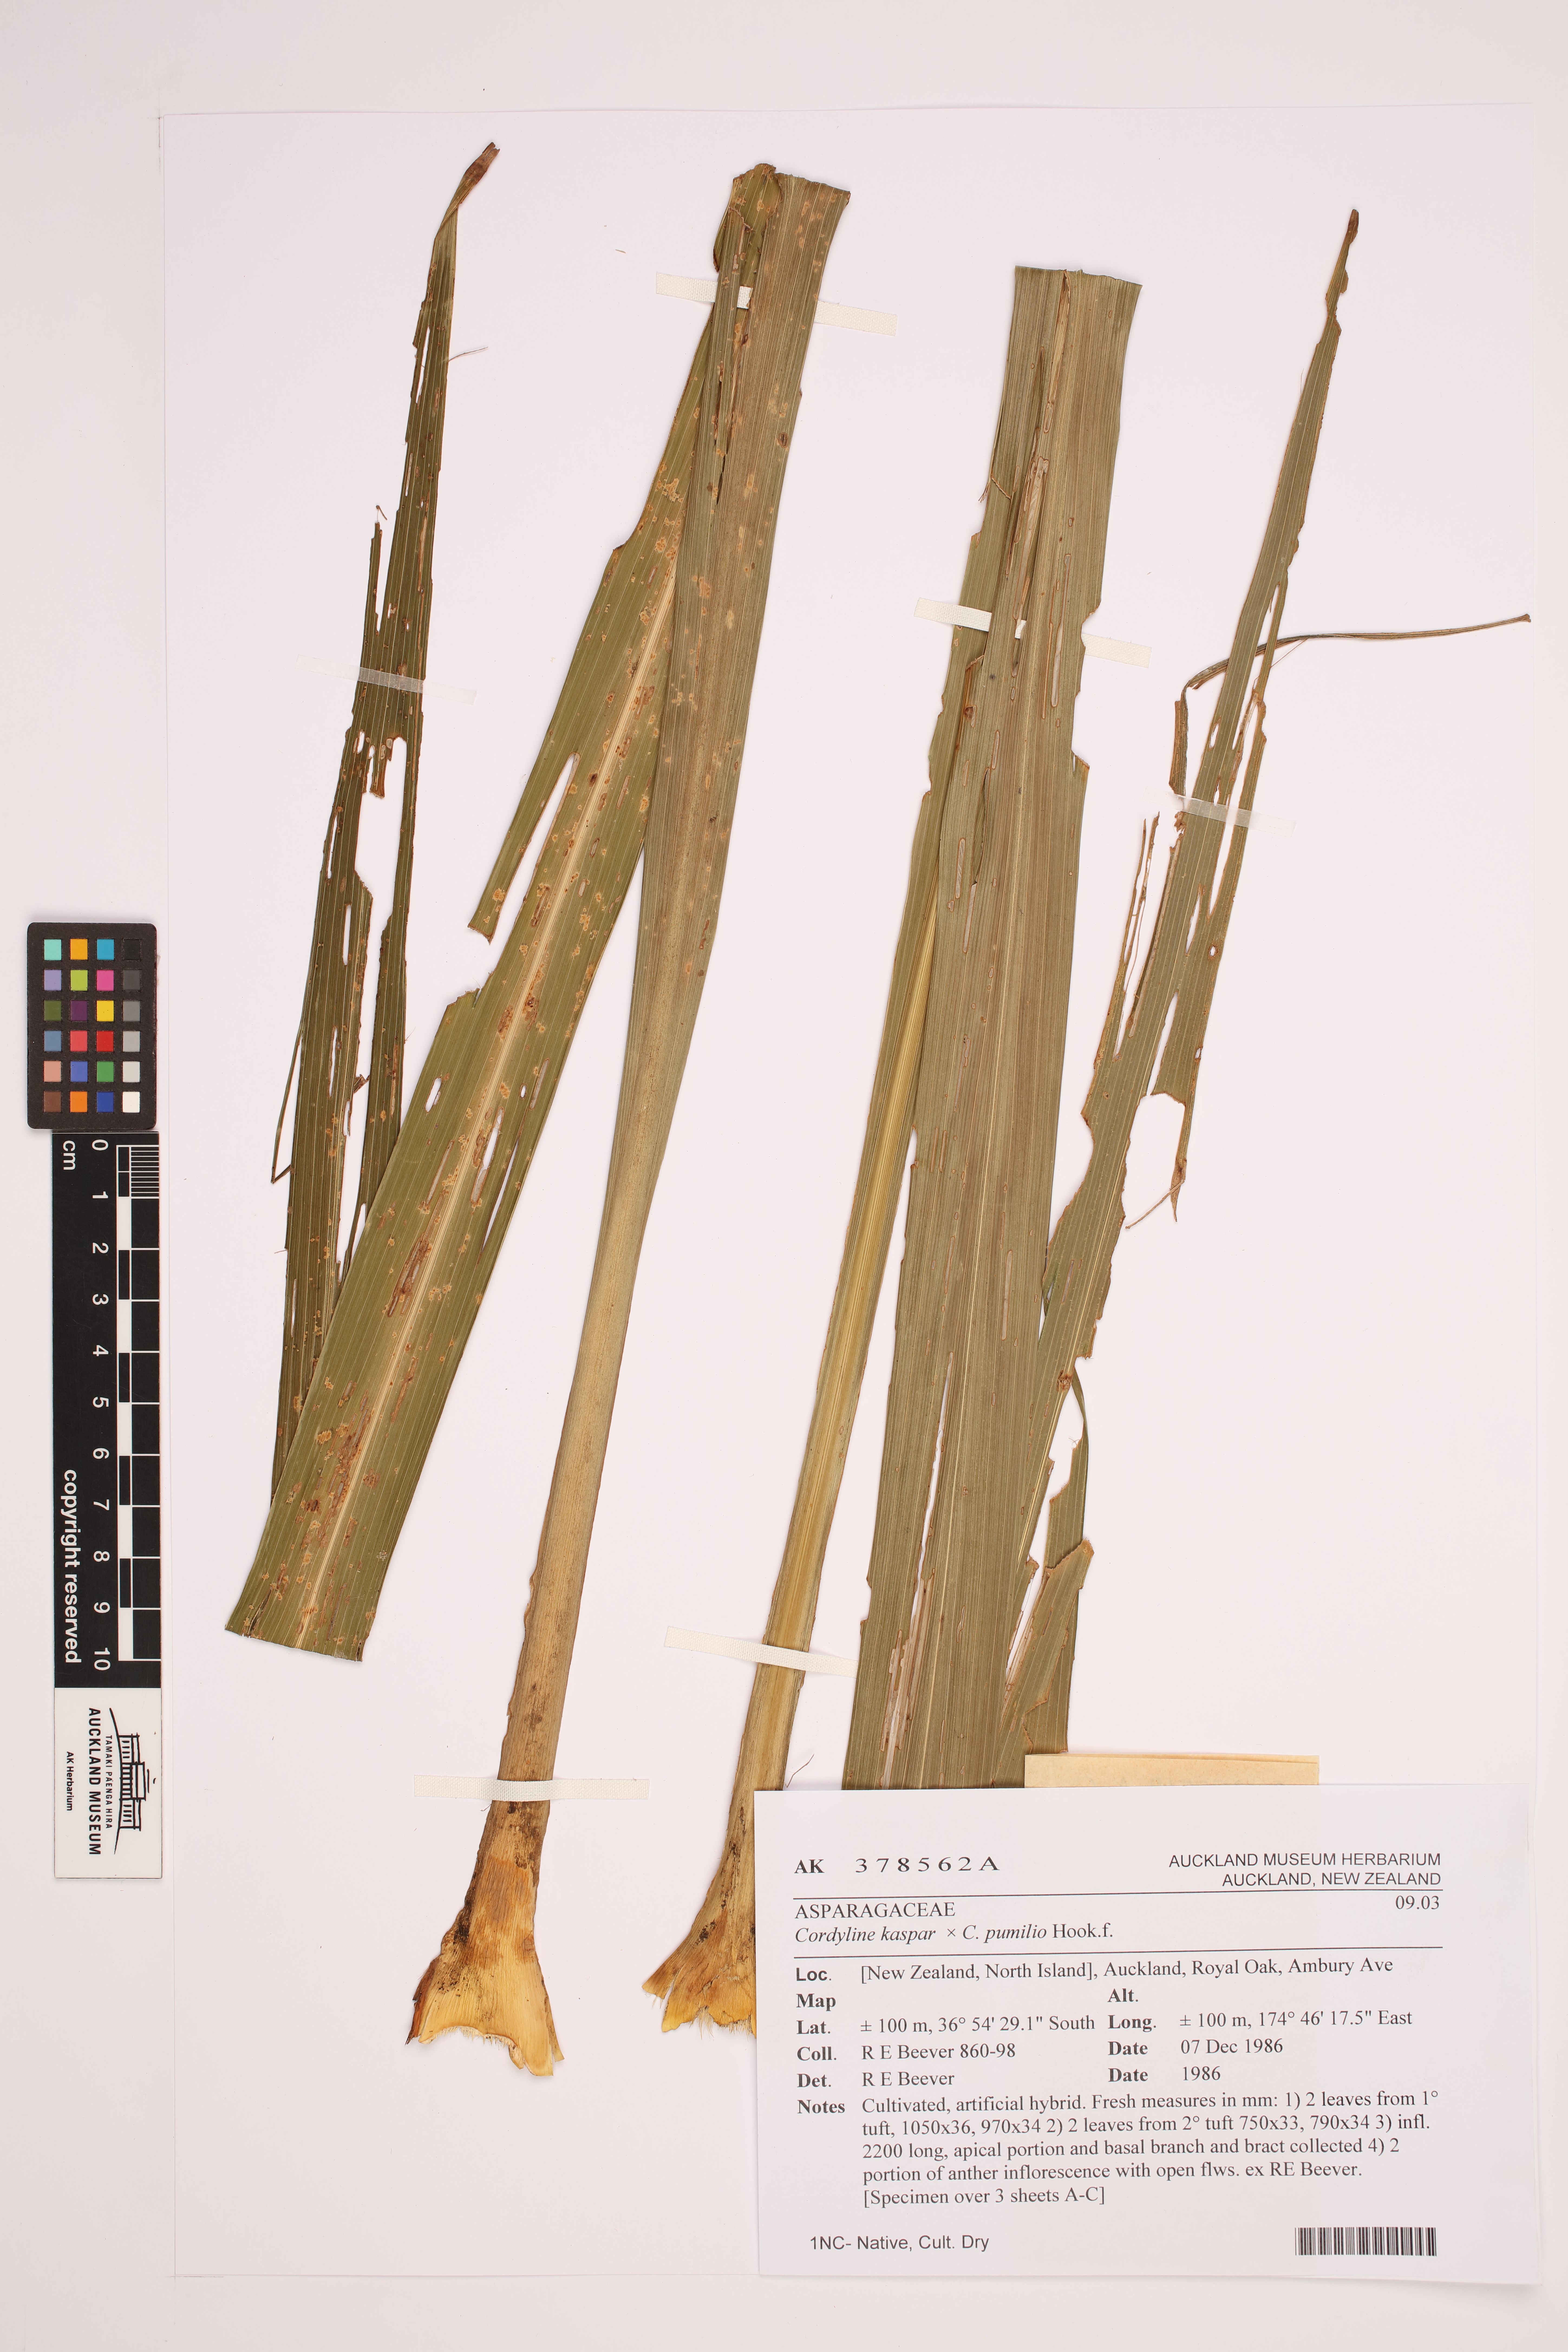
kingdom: Plantae
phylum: Tracheophyta
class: Liliopsida
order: Asparagales
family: Asparagaceae
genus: Cordyline
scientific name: Cordyline
